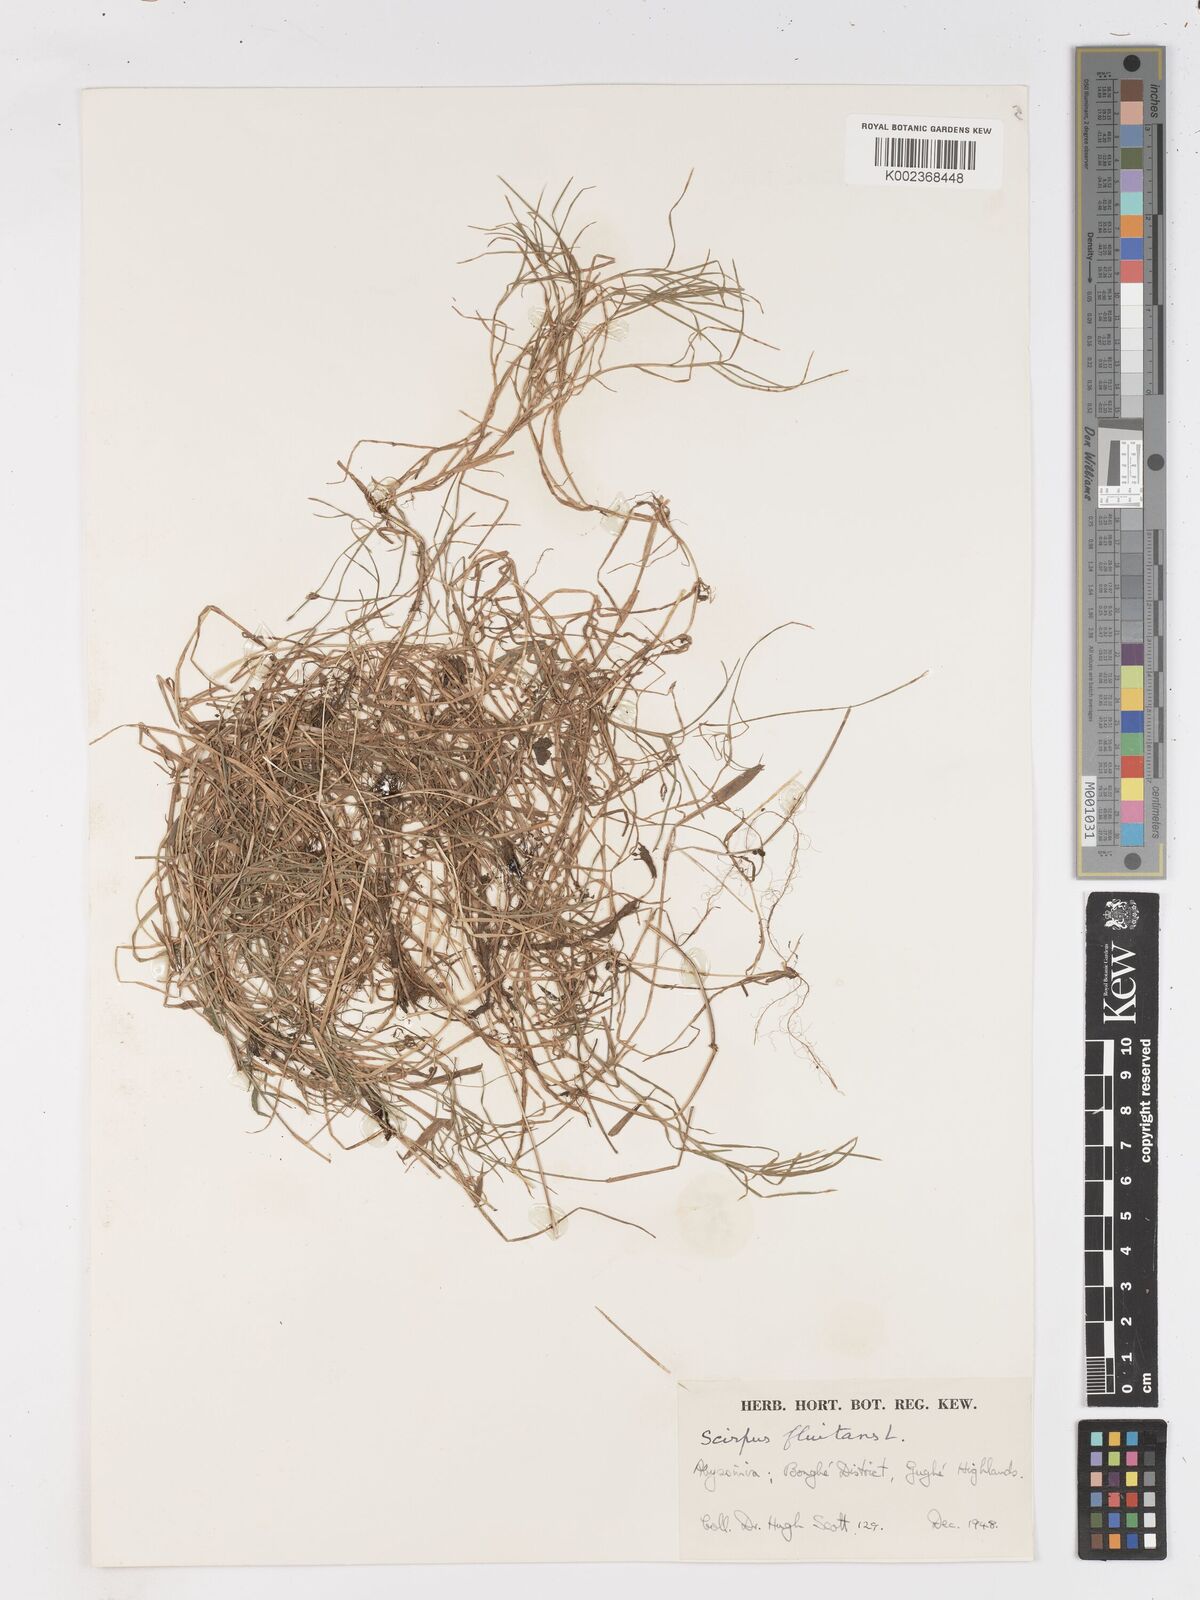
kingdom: Plantae
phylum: Tracheophyta
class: Liliopsida
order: Poales
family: Cyperaceae
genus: Isolepis
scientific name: Isolepis fluitans
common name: Floating club-rush
